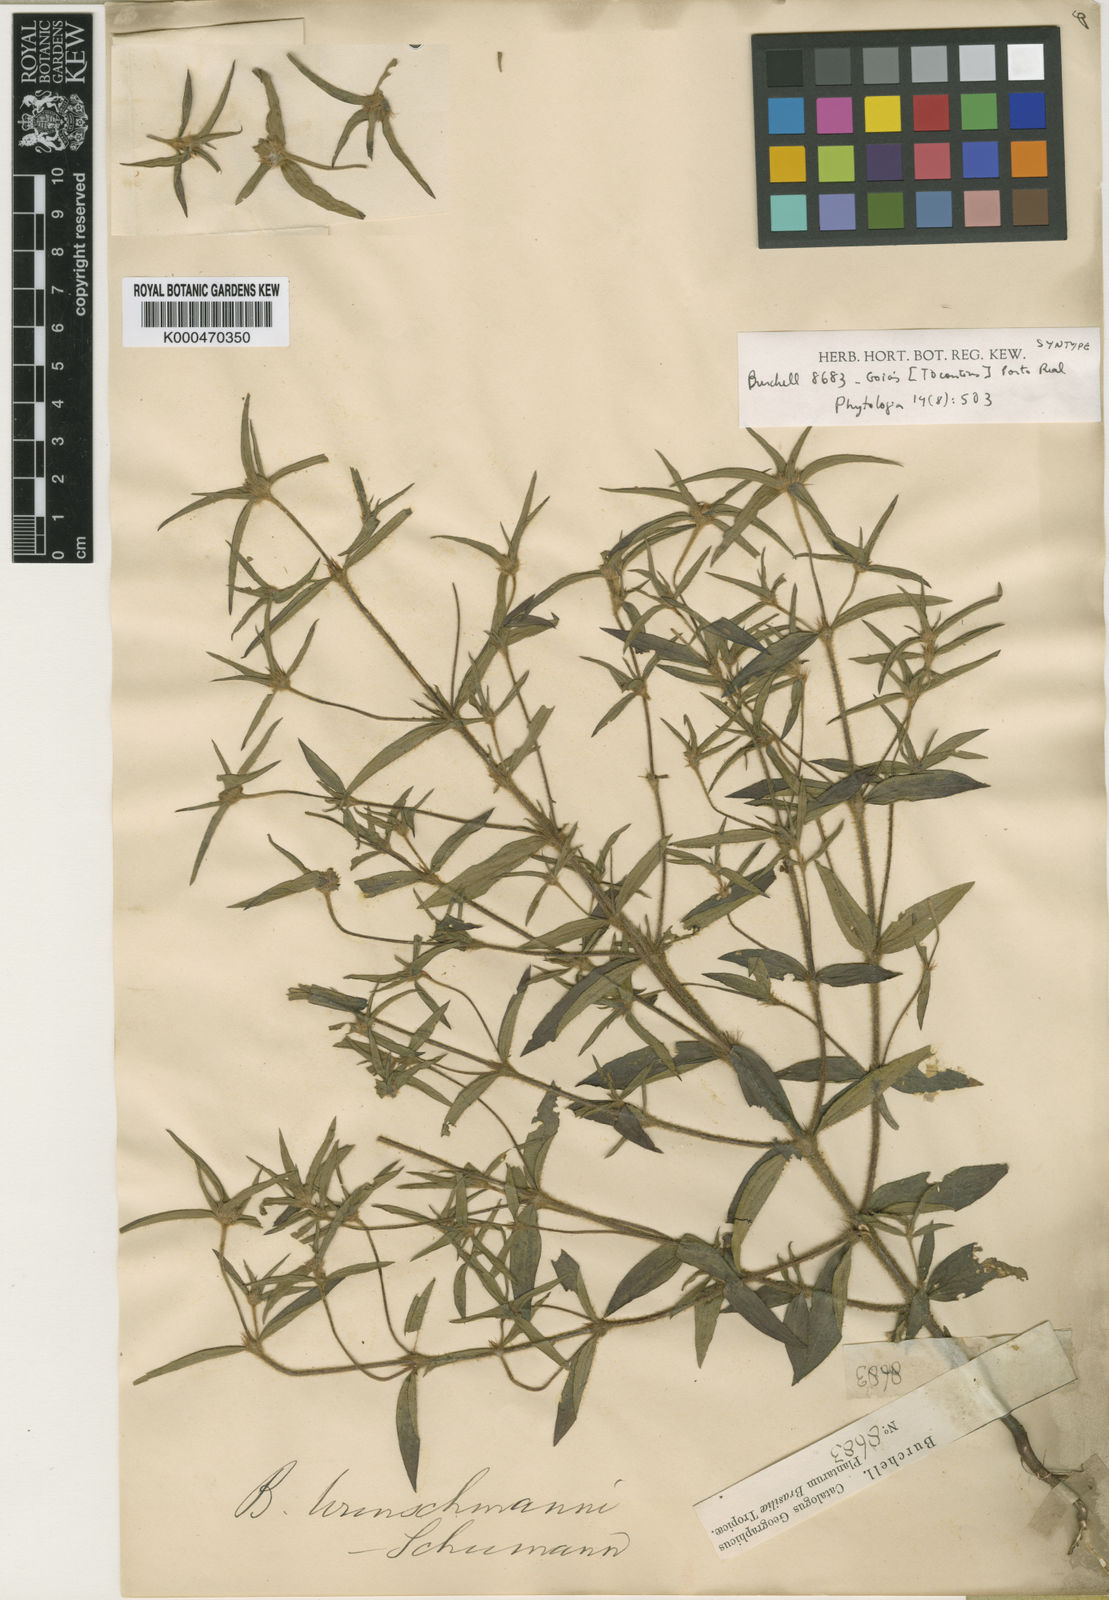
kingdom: Plantae
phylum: Tracheophyta
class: Magnoliopsida
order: Gentianales
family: Rubiaceae
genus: Spermacoce
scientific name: Spermacoce wunschmannii
